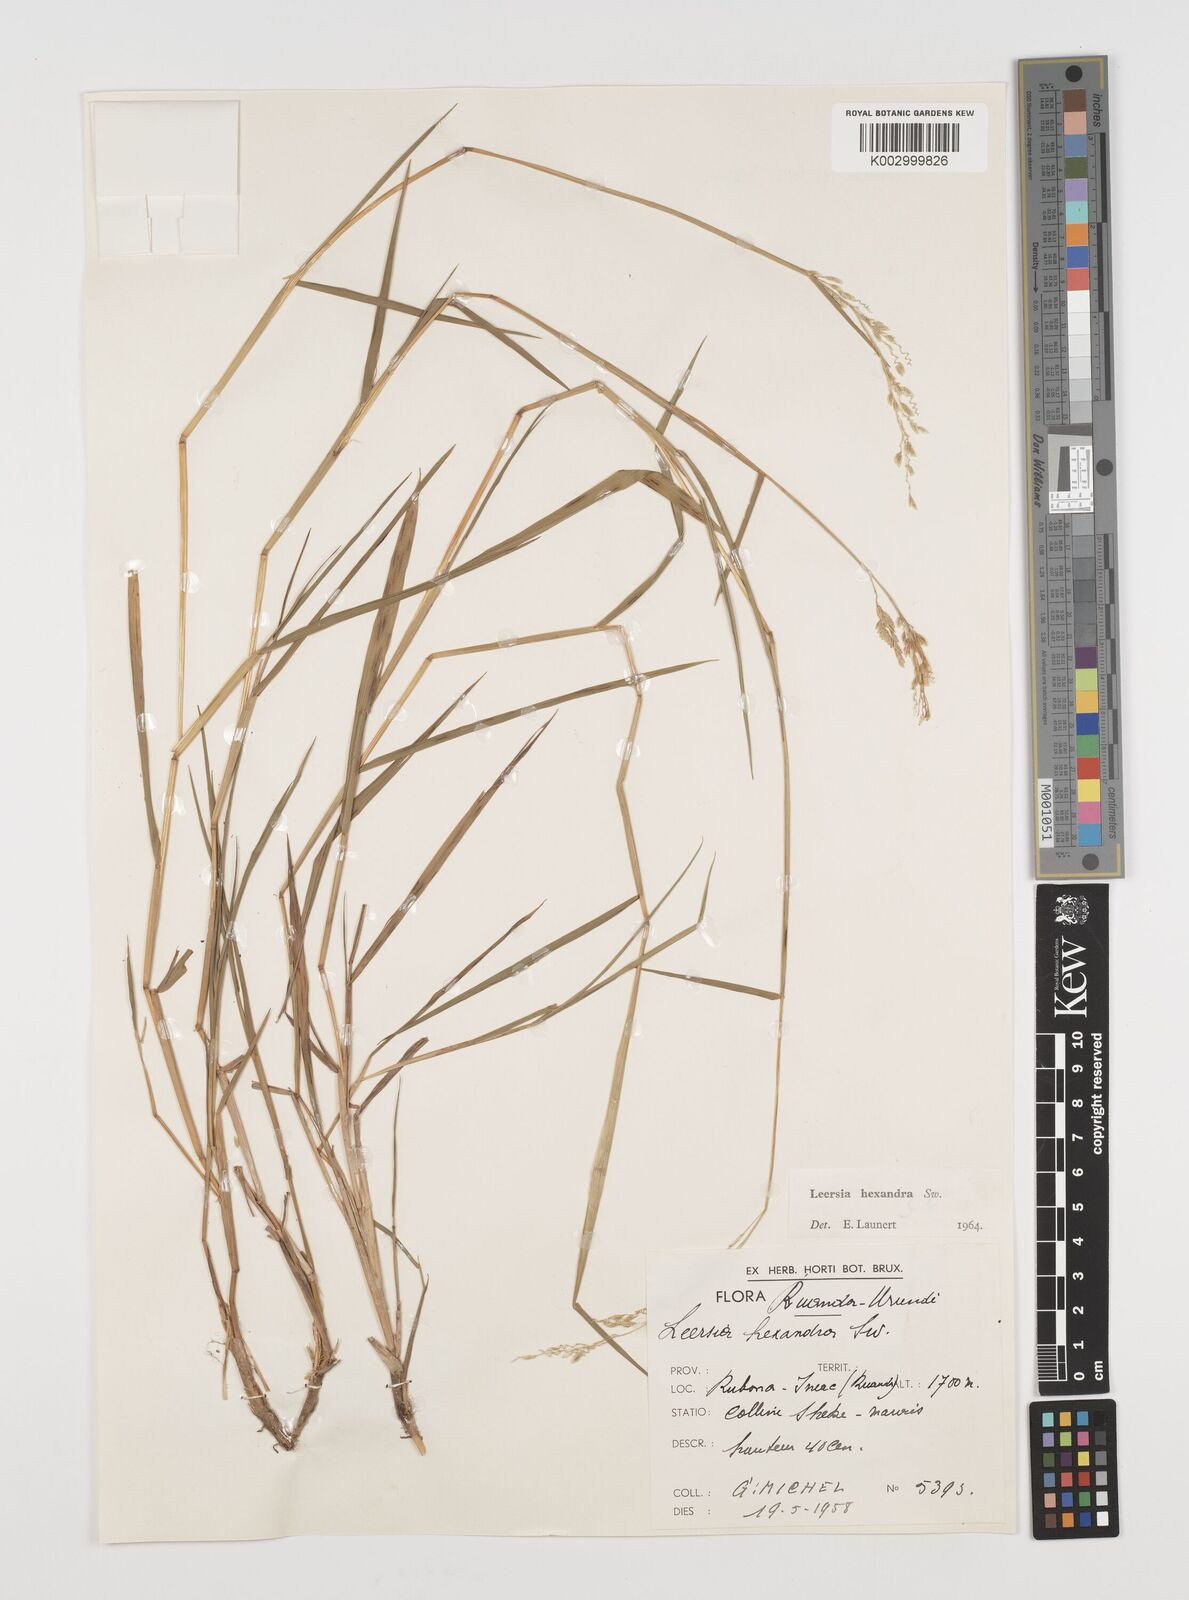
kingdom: Plantae
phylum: Tracheophyta
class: Liliopsida
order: Poales
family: Poaceae
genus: Leersia
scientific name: Leersia hexandra
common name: Southern cut grass
